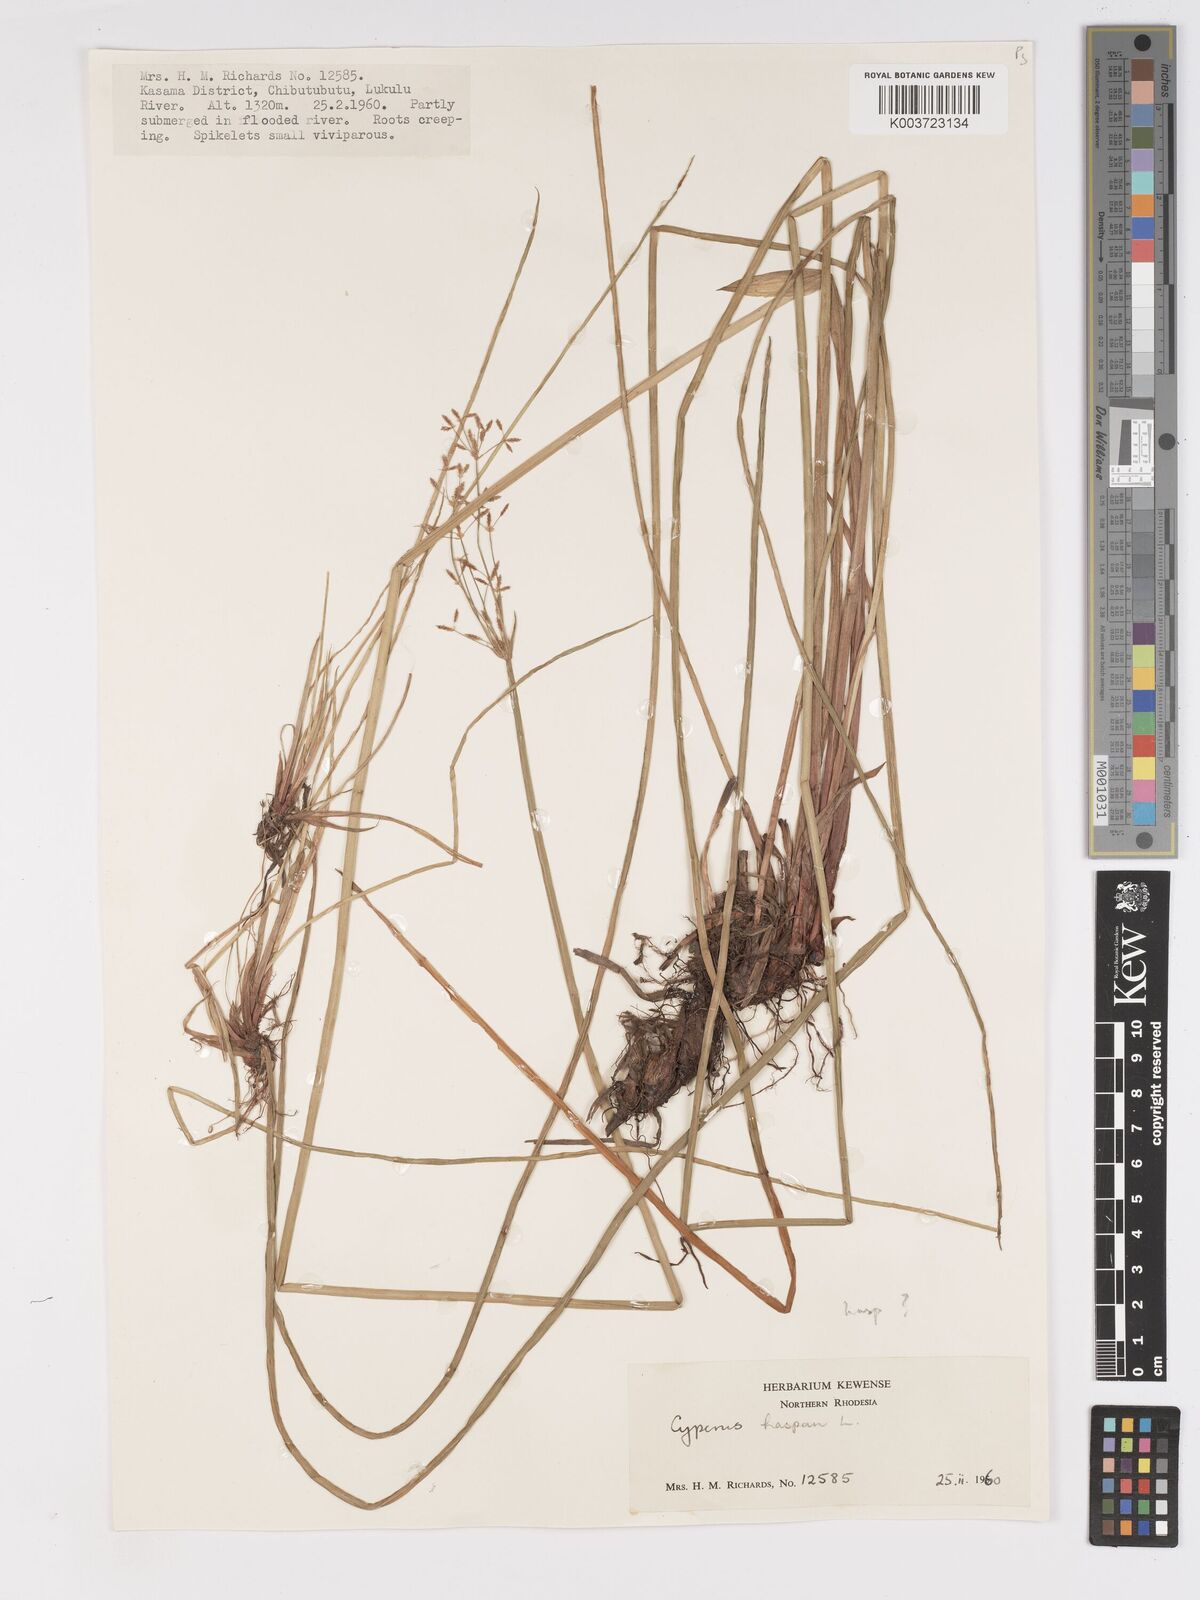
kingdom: Plantae
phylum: Tracheophyta
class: Liliopsida
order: Poales
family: Cyperaceae
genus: Cyperus
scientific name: Cyperus haspan
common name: Haspan flatsedge
